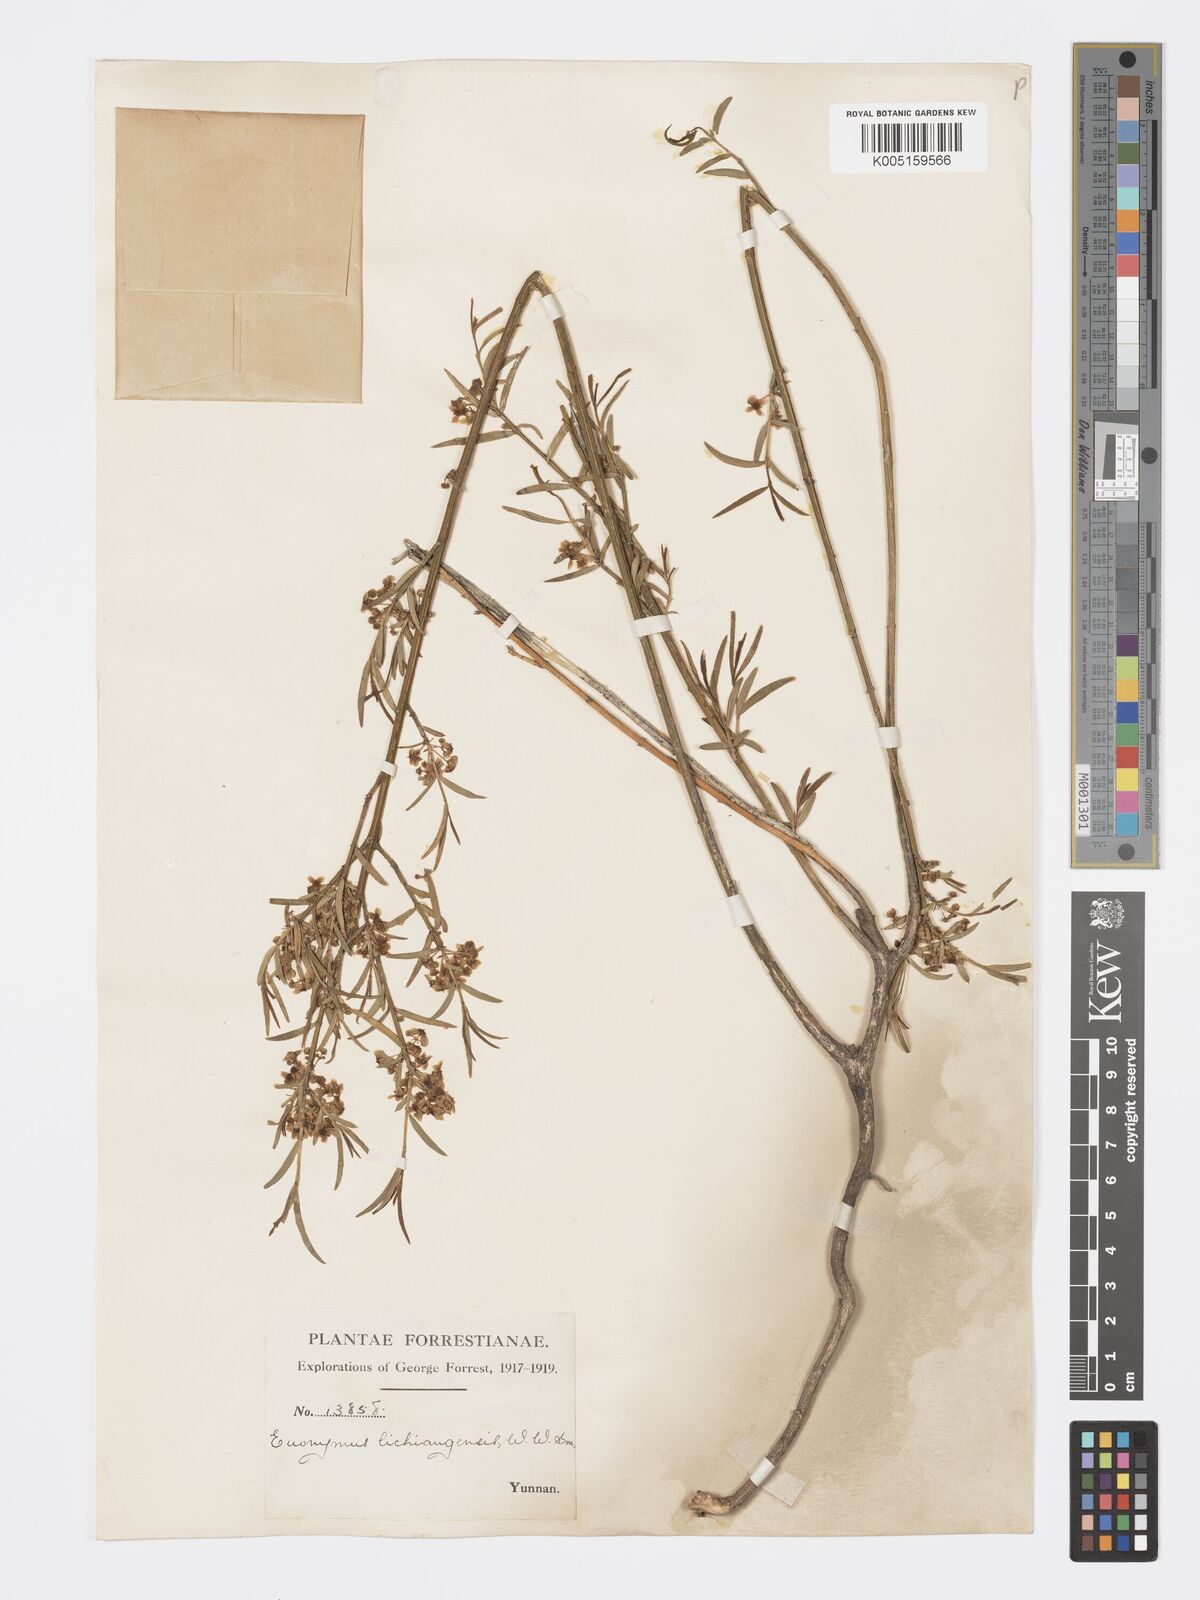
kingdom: Plantae
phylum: Tracheophyta
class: Magnoliopsida
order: Celastrales
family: Celastraceae
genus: Euonymus
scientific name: Euonymus lichiangensis
